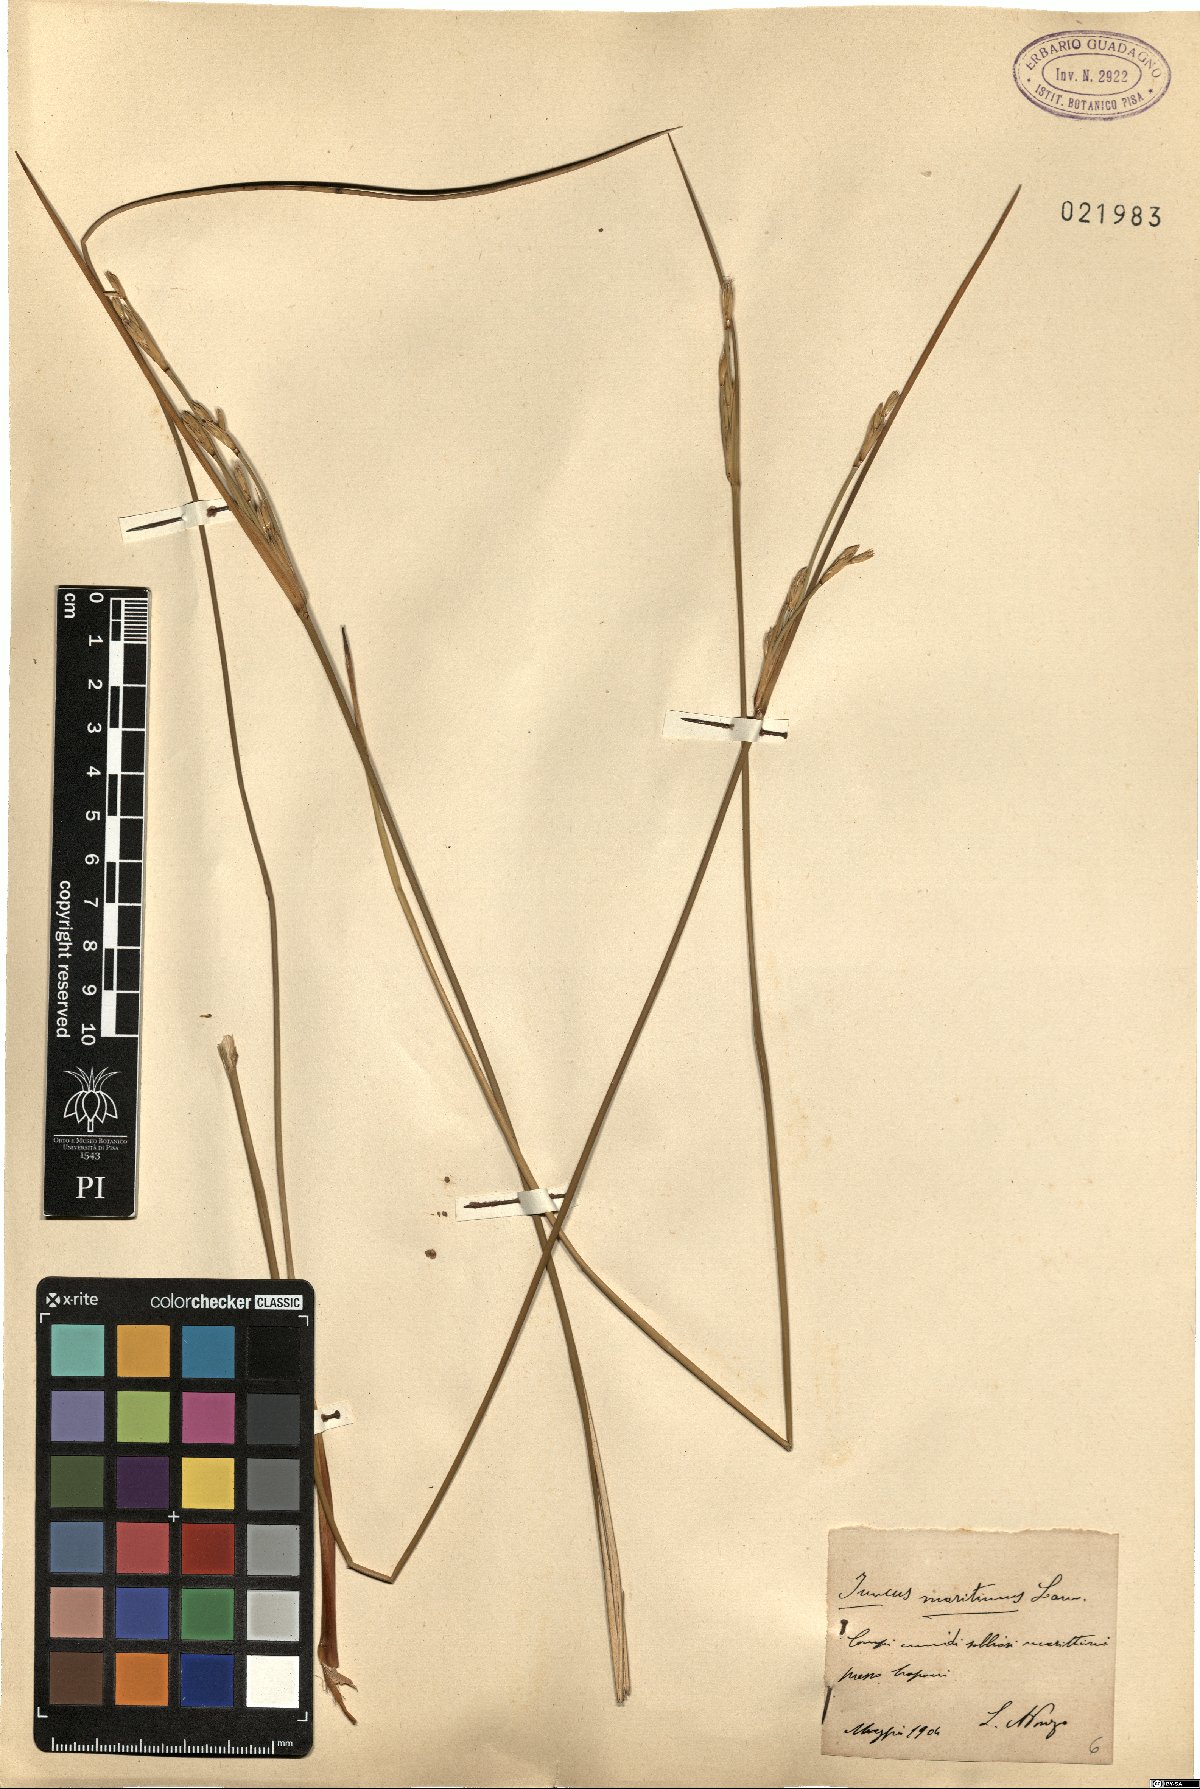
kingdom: Plantae
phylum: Tracheophyta
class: Liliopsida
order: Poales
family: Juncaceae
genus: Juncus
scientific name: Juncus maritimus
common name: Sea rush
